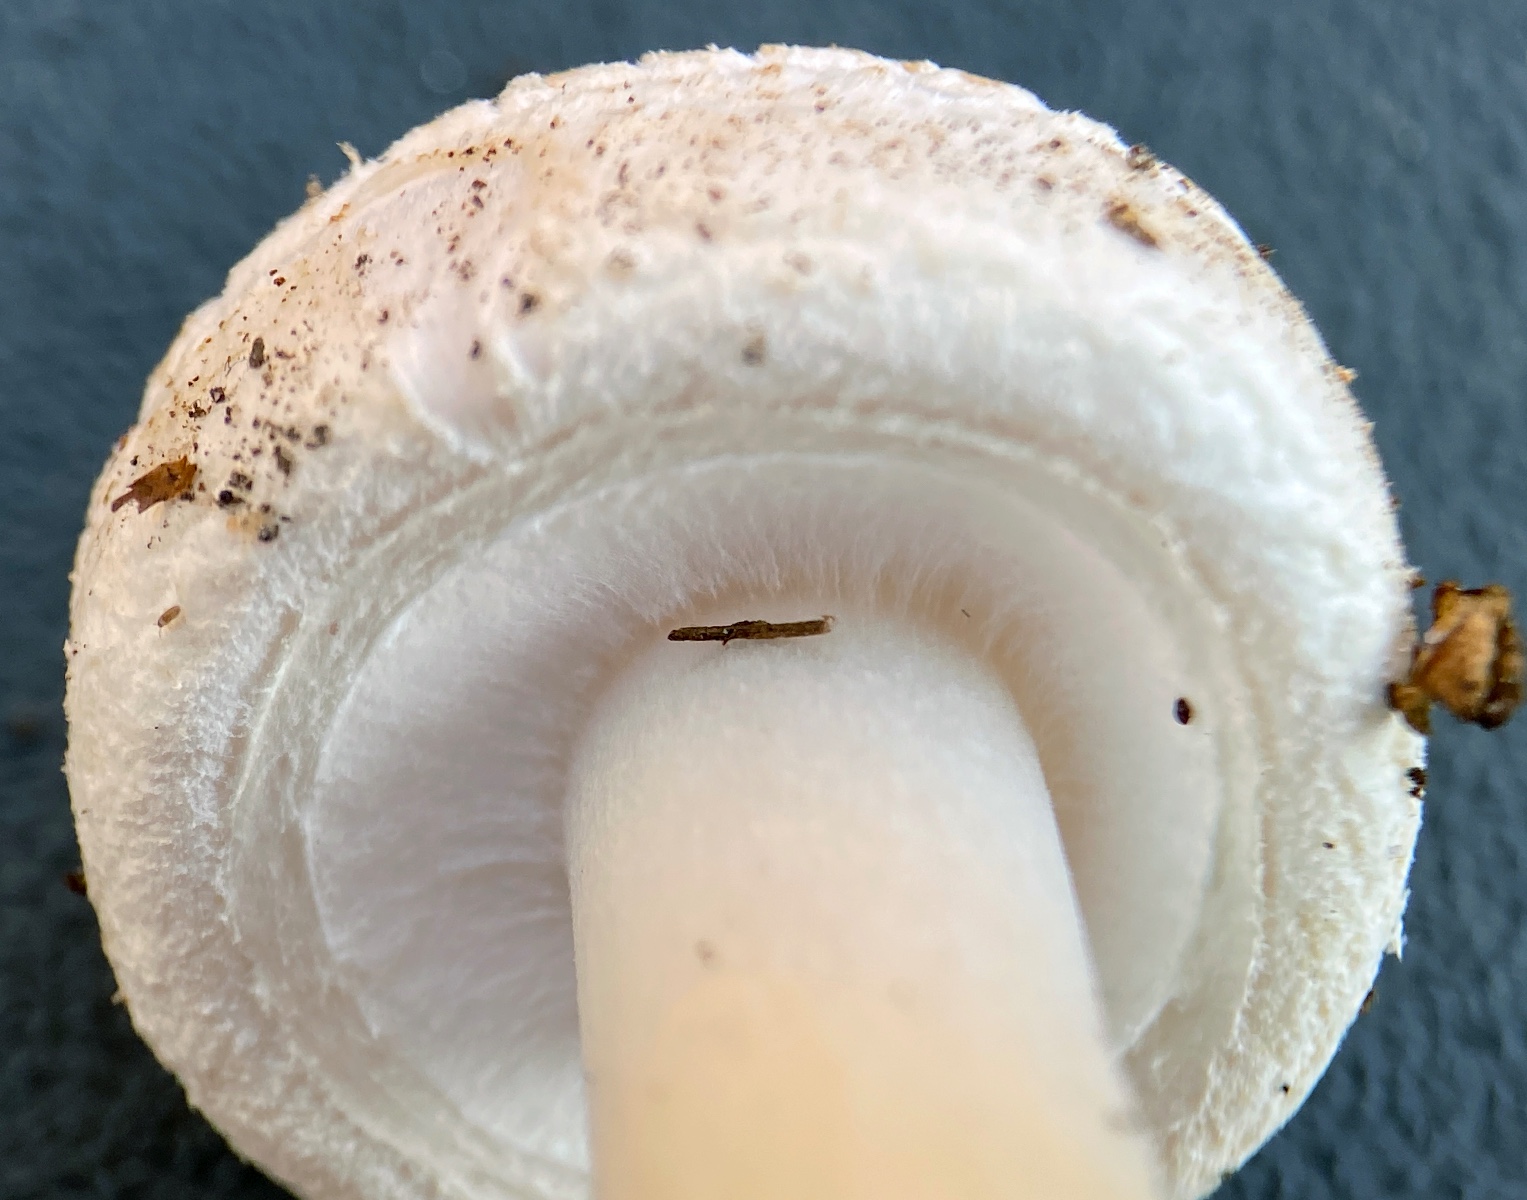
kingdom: Fungi
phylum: Basidiomycota
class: Agaricomycetes
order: Agaricales
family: Amanitaceae
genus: Amanita
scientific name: Amanita citrina
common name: kugleknoldet fluesvamp
